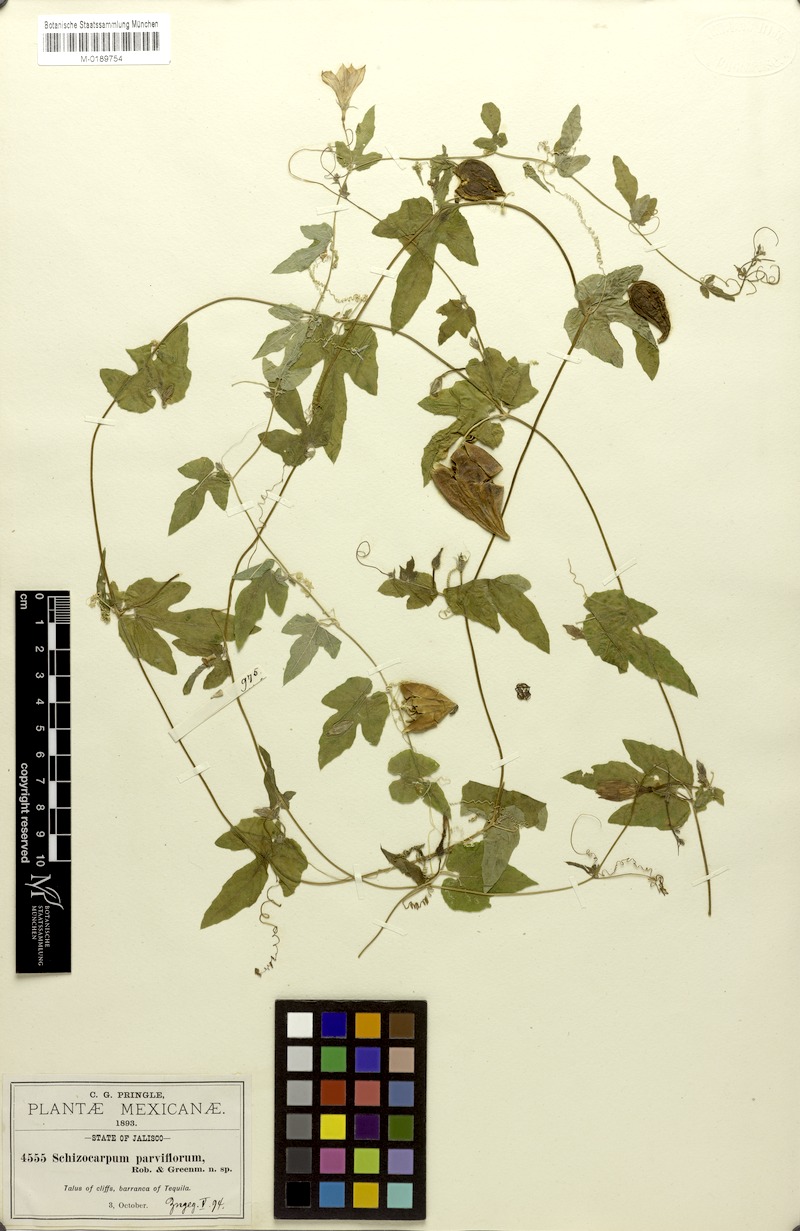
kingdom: Plantae
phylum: Tracheophyta
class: Magnoliopsida
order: Cucurbitales
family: Cucurbitaceae
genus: Schizocarpum
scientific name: Schizocarpum parviflorum
